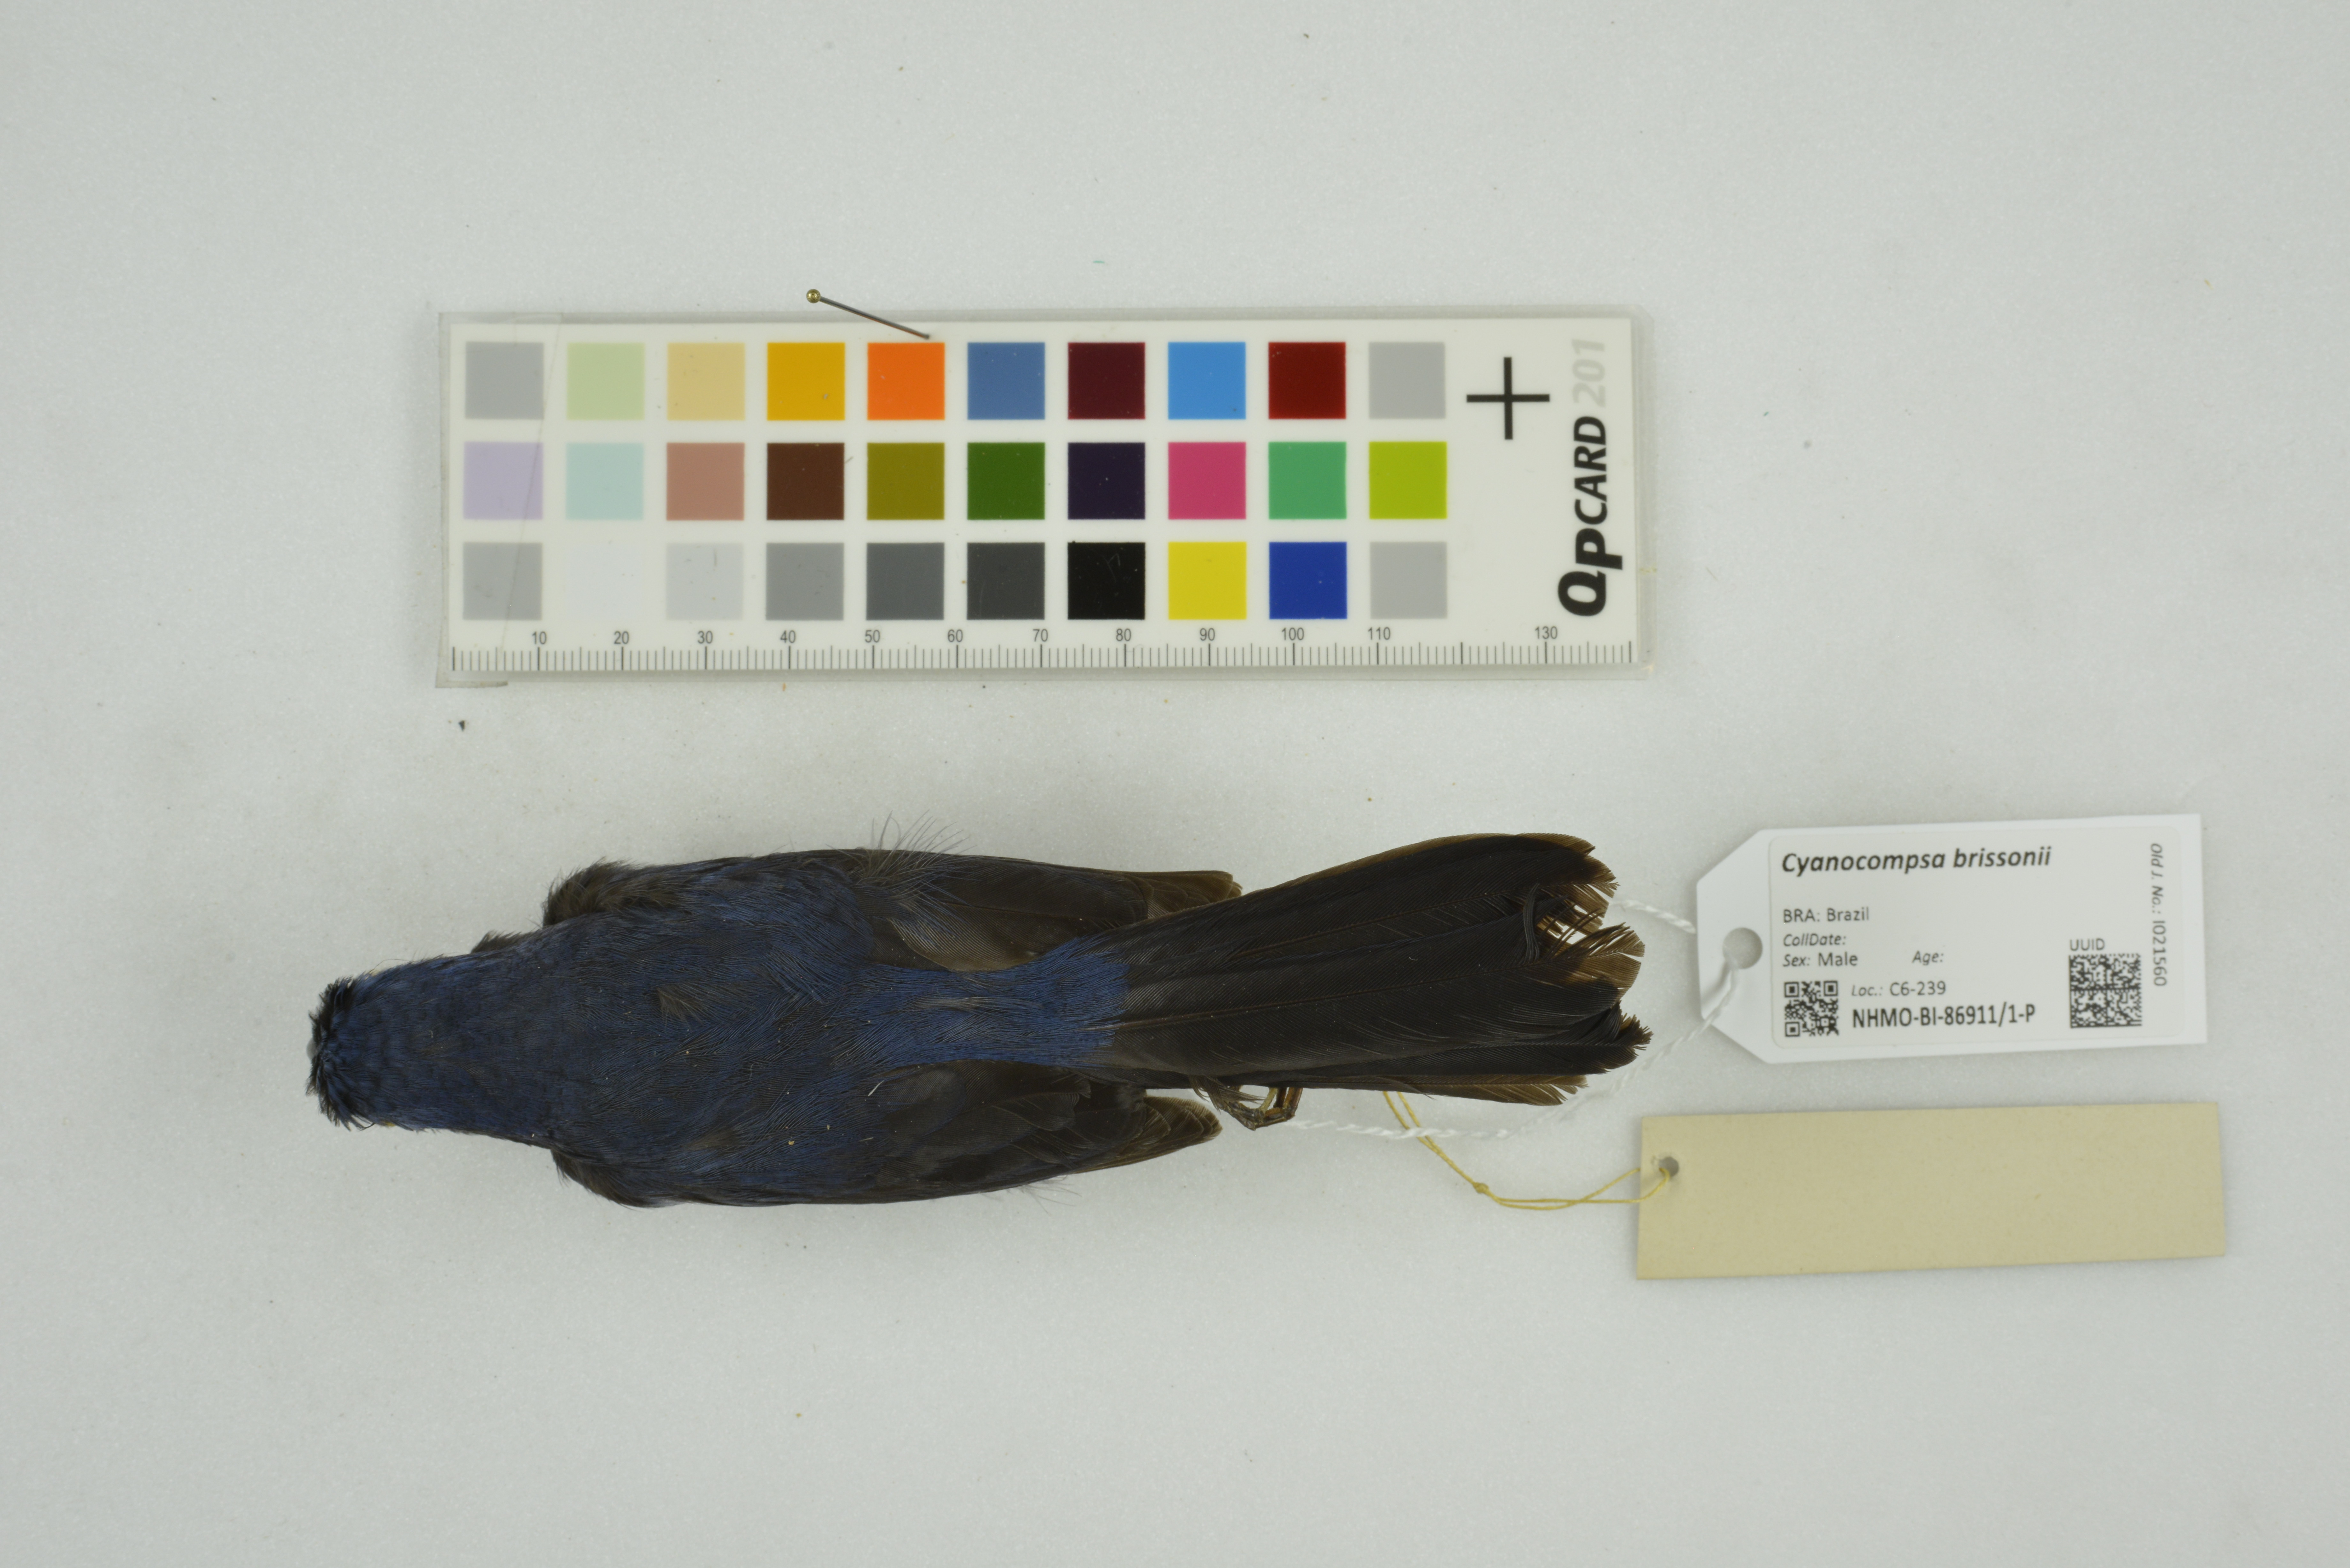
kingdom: Animalia
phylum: Chordata
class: Aves
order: Passeriformes
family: Cardinalidae
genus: Cyanoloxia
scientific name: Cyanoloxia brissonii
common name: Ultramarine grosbeak
